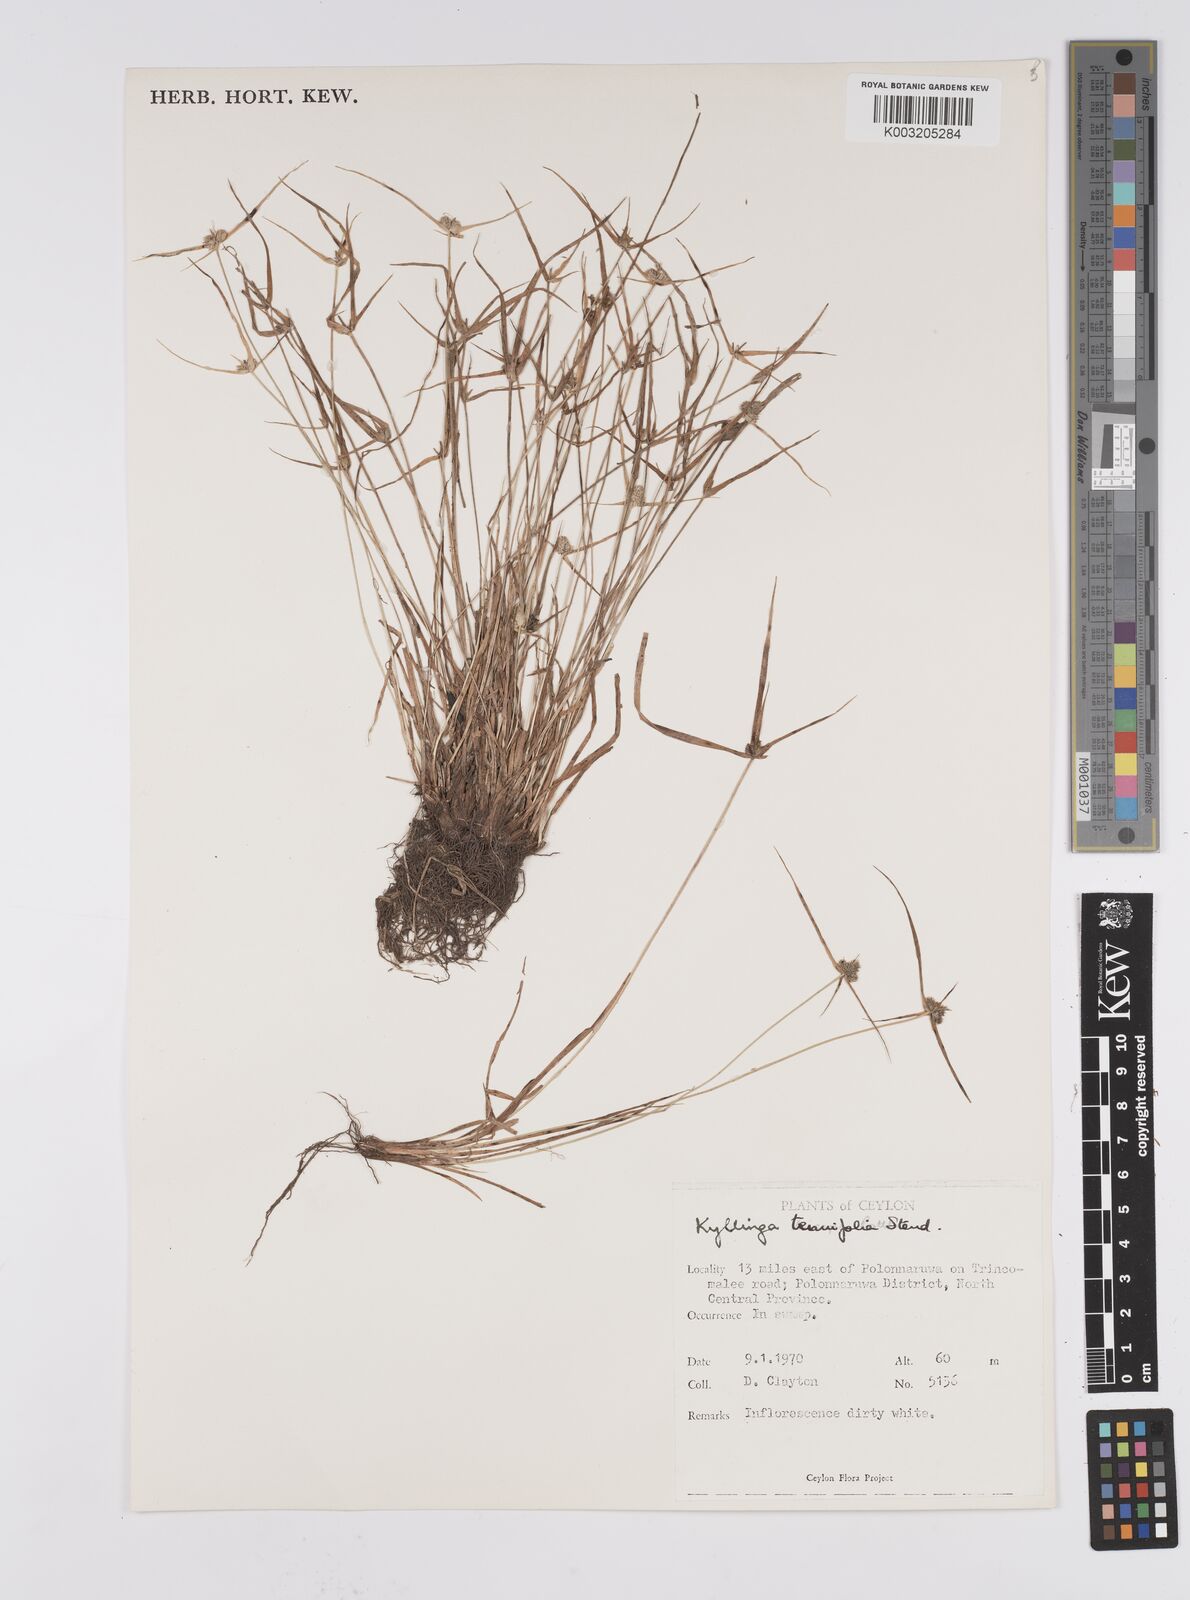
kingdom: Plantae
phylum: Tracheophyta
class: Liliopsida
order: Poales
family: Cyperaceae
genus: Cyperus
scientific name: Cyperus
